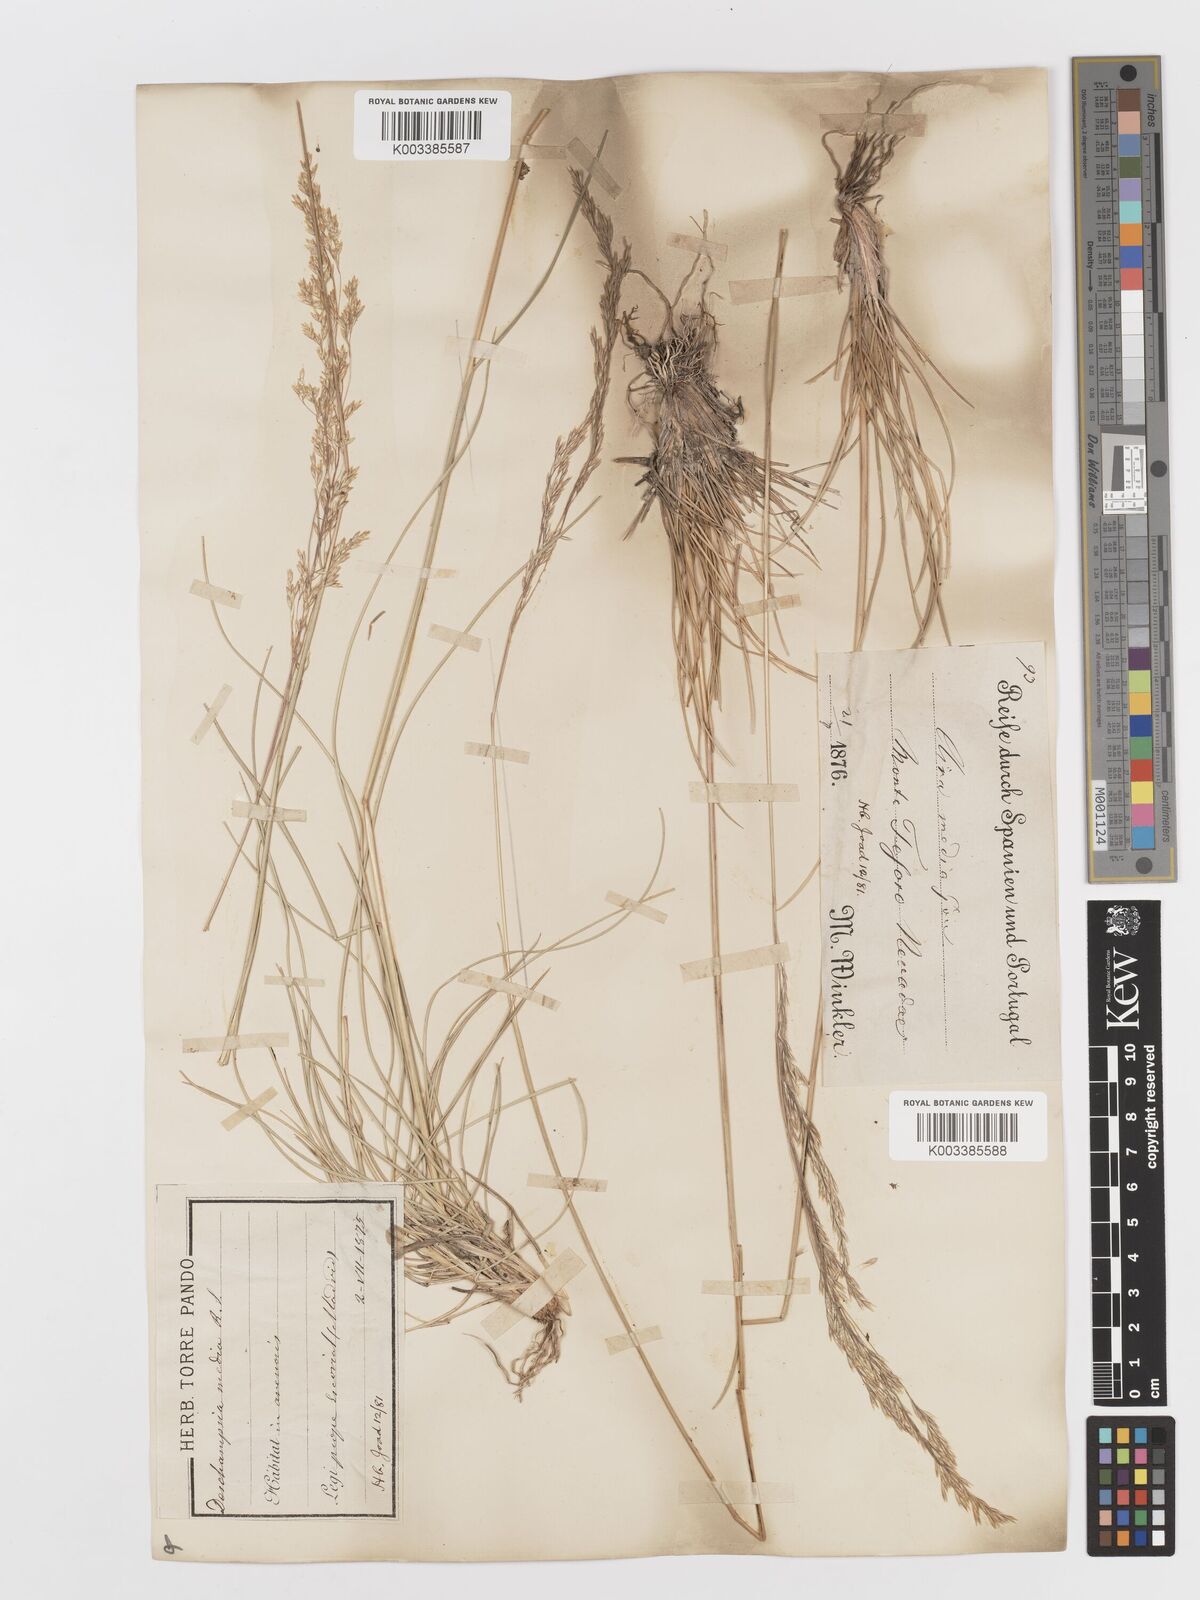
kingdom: Plantae
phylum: Tracheophyta
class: Liliopsida
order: Poales
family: Poaceae
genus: Deschampsia
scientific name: Deschampsia media
